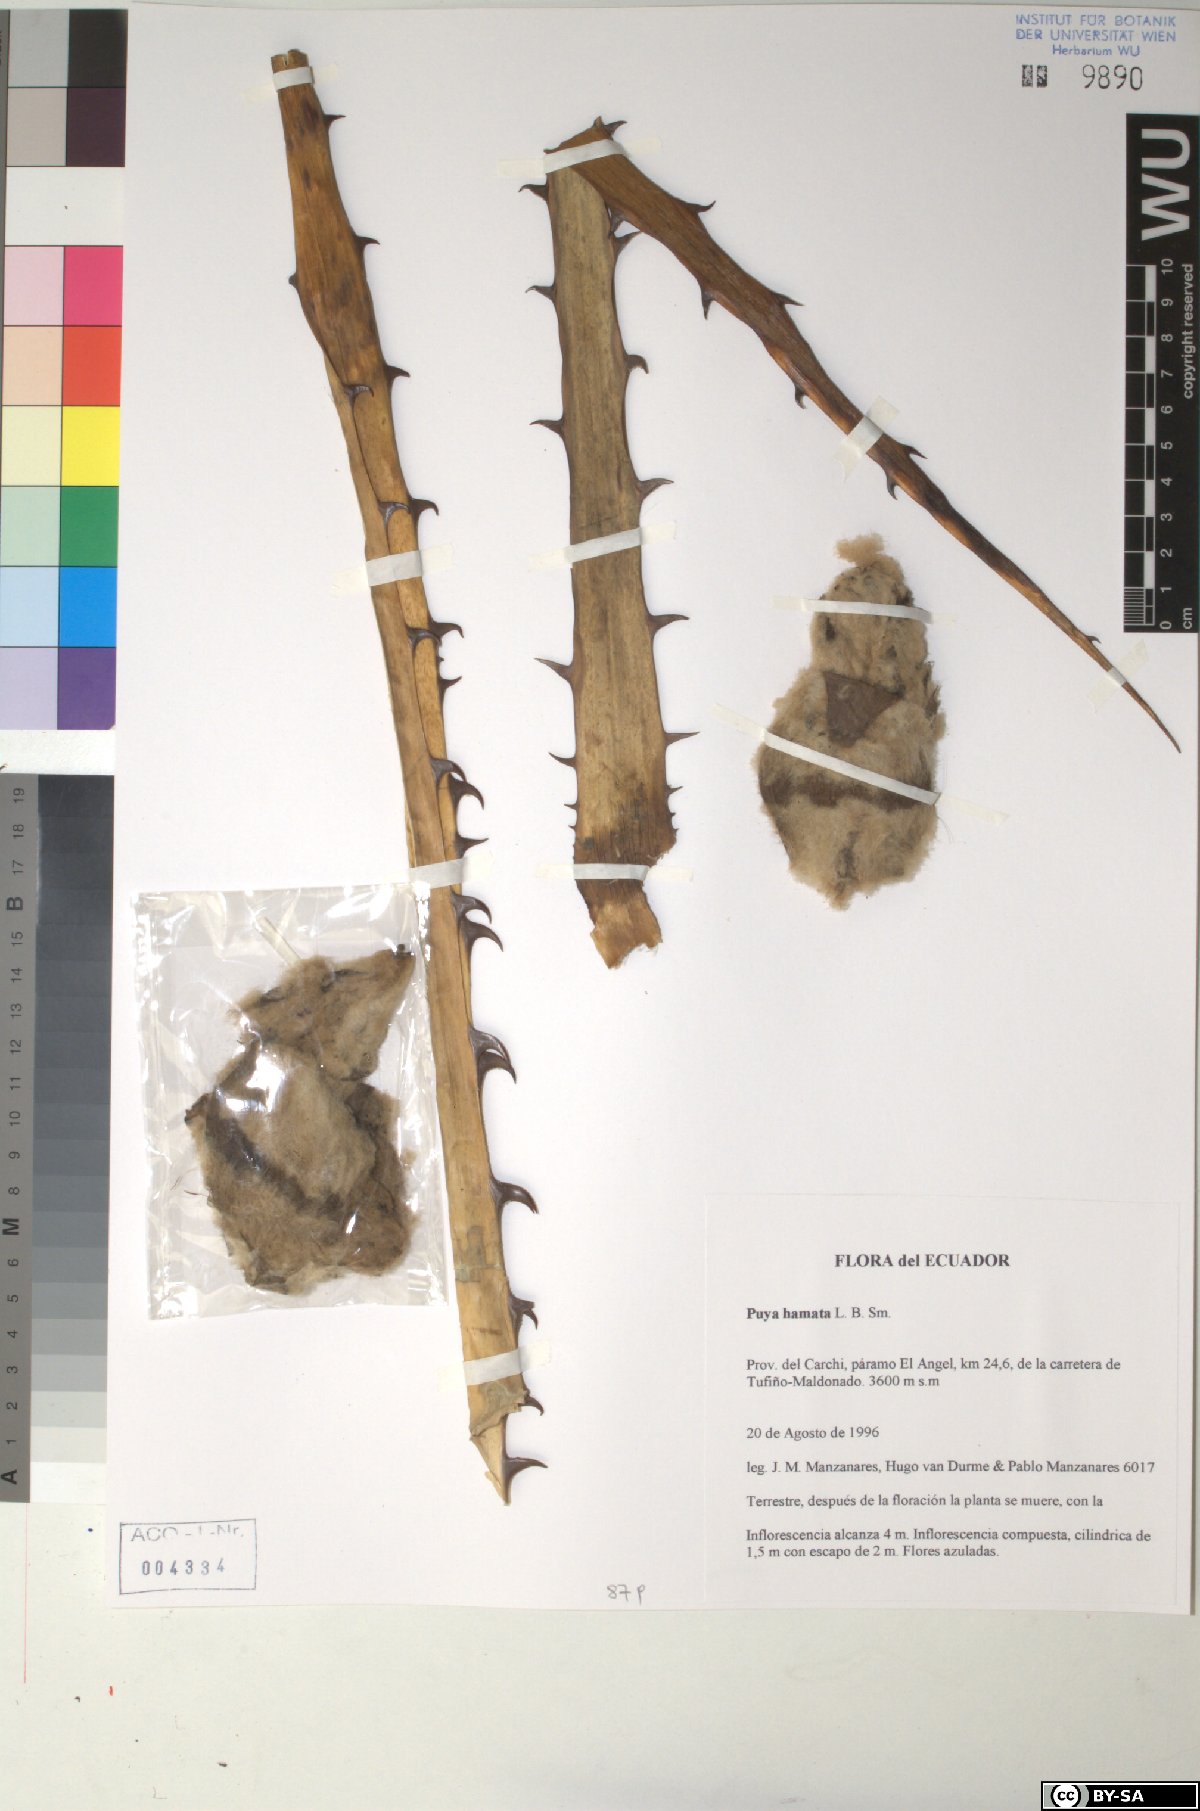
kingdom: Plantae
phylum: Tracheophyta
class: Liliopsida
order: Poales
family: Bromeliaceae
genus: Puya
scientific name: Puya hamata
